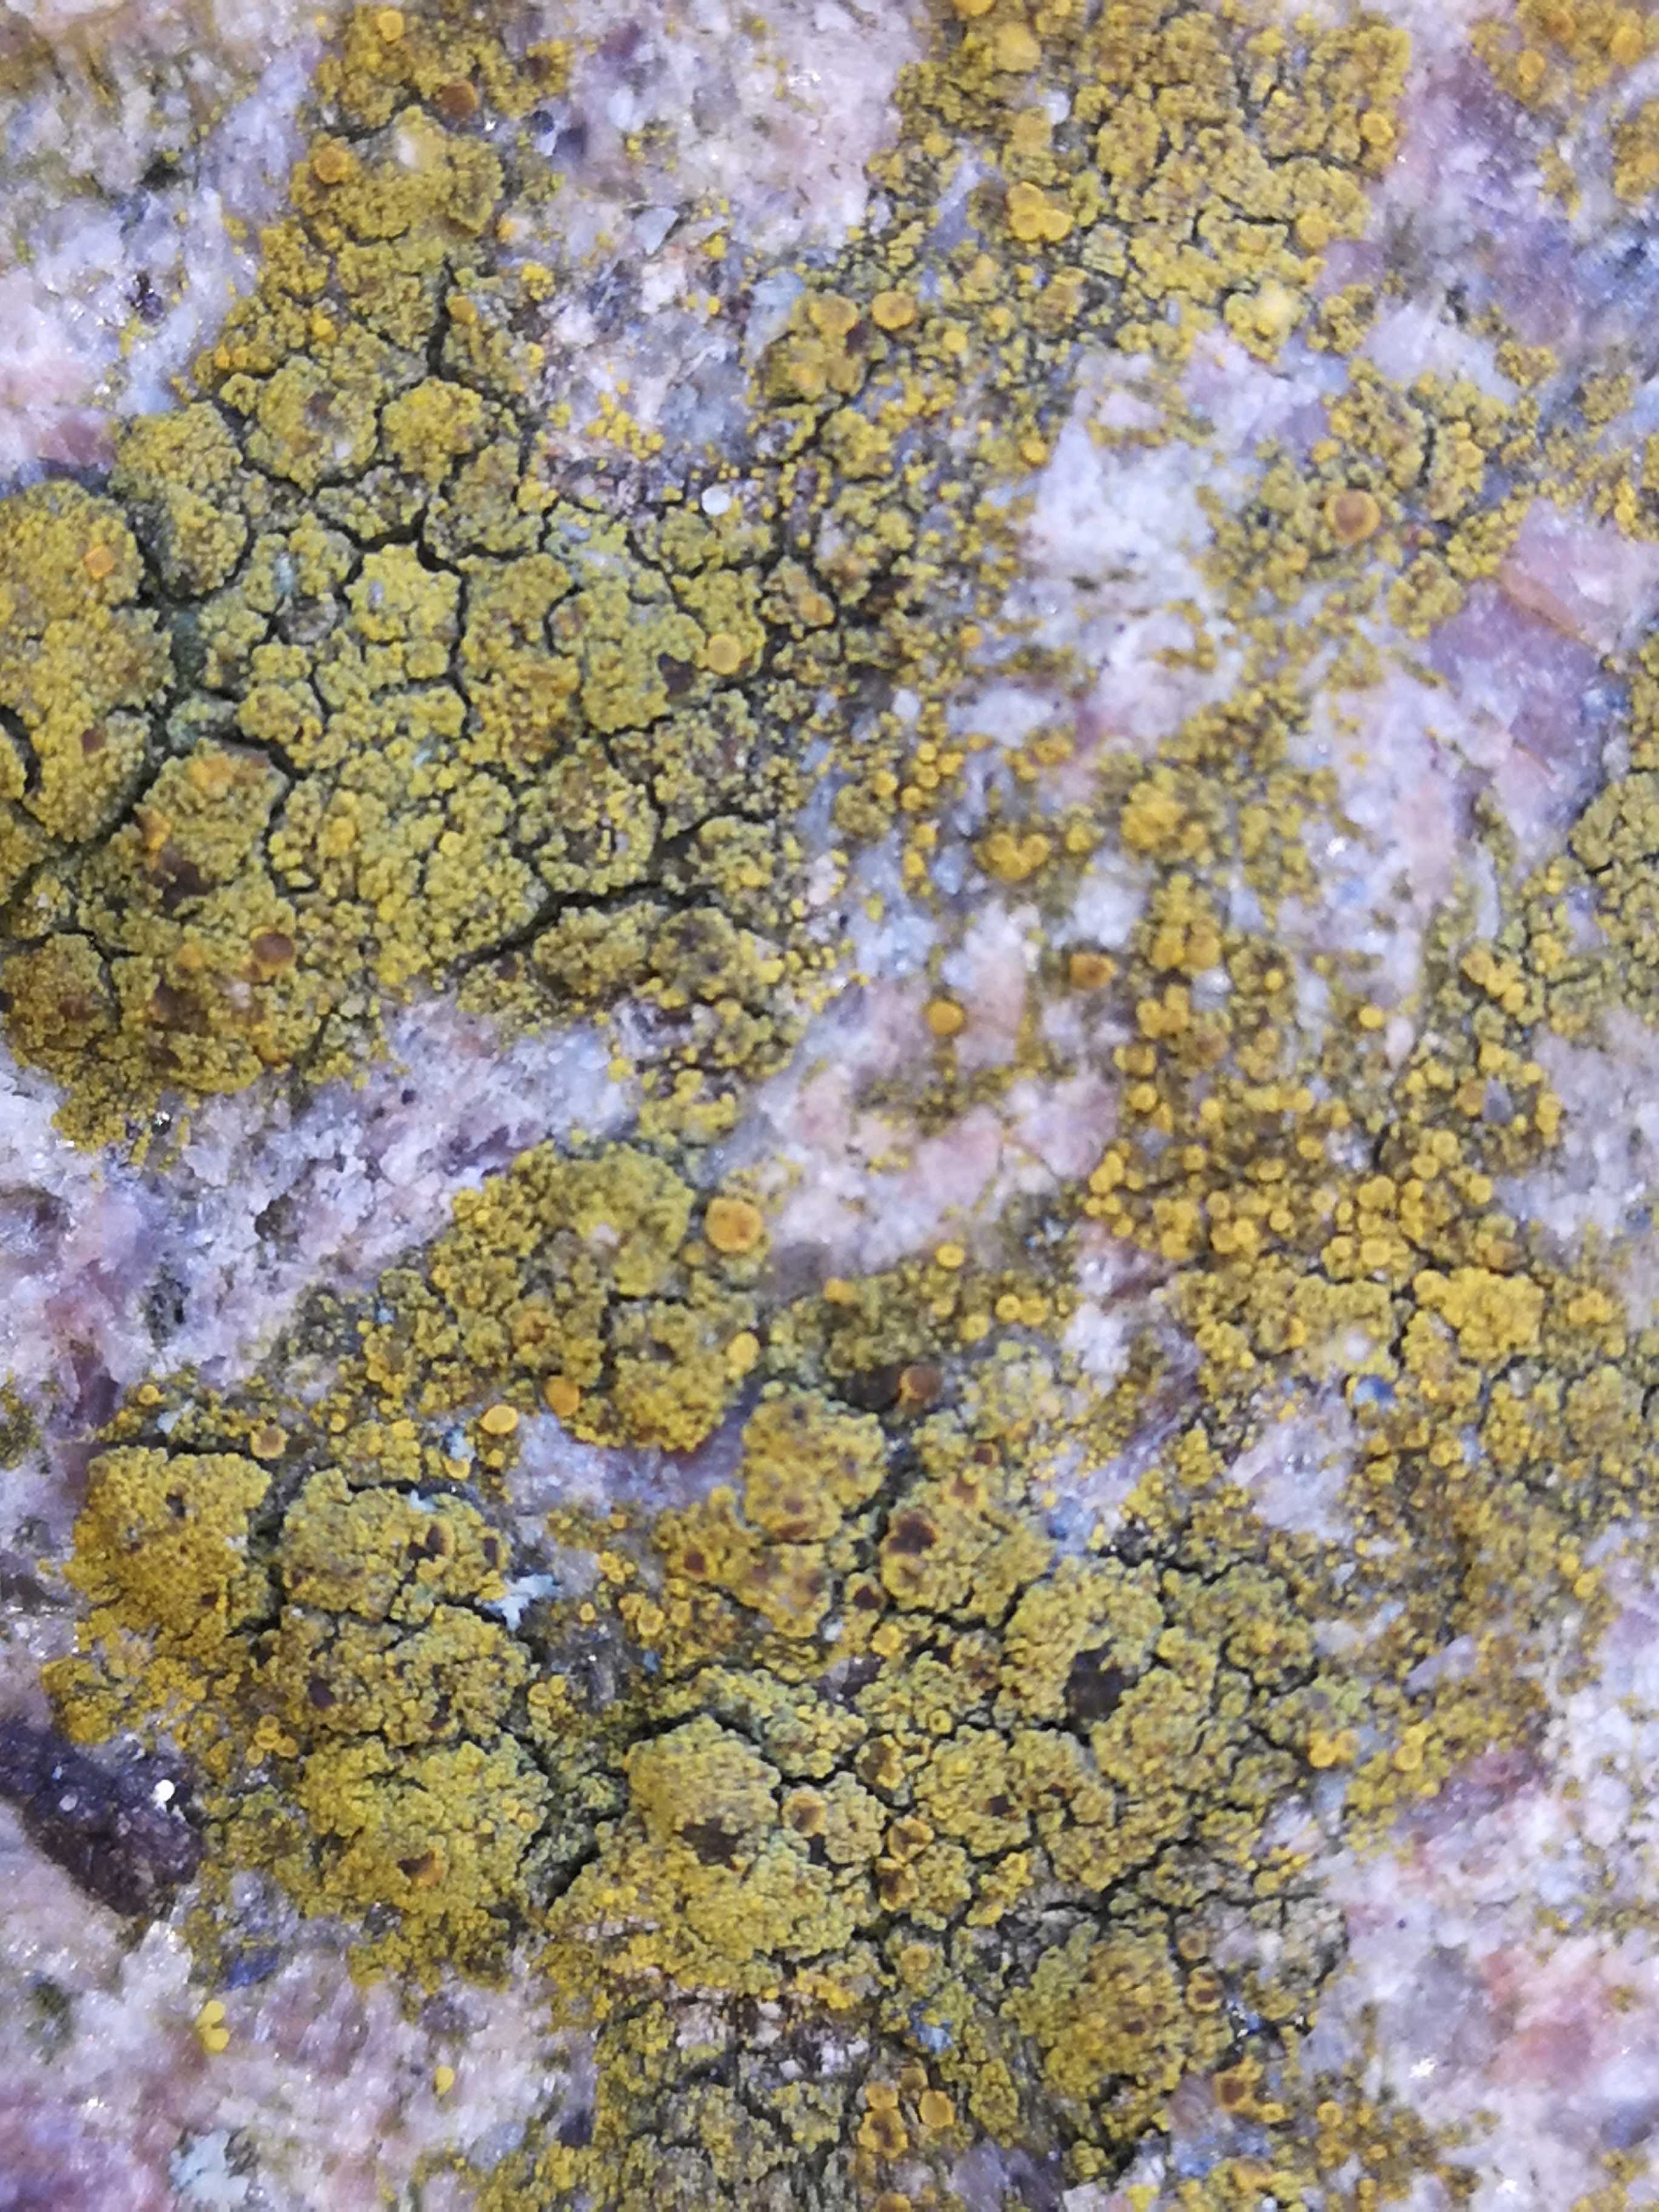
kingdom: Fungi
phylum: Ascomycota
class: Candelariomycetes
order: Candelariales
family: Candelariaceae
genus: Candelariella
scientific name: Candelariella vitellina
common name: almindelig æggeblommelav
